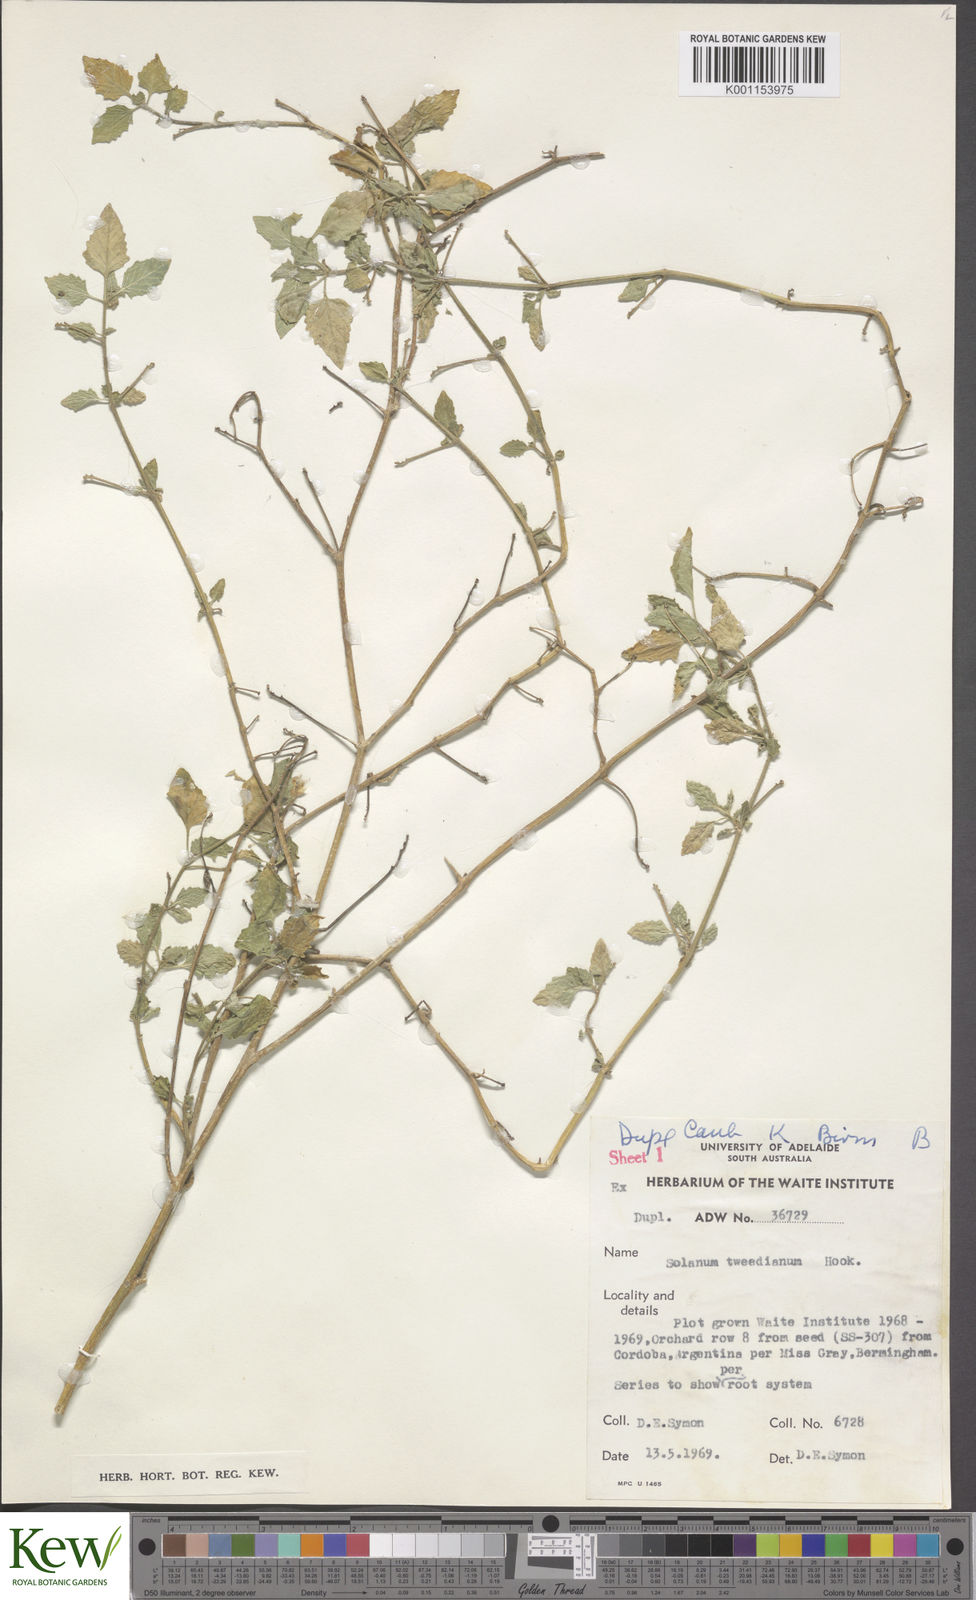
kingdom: Plantae
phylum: Tracheophyta
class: Magnoliopsida
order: Solanales
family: Solanaceae
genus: Solanum
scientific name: Solanum
